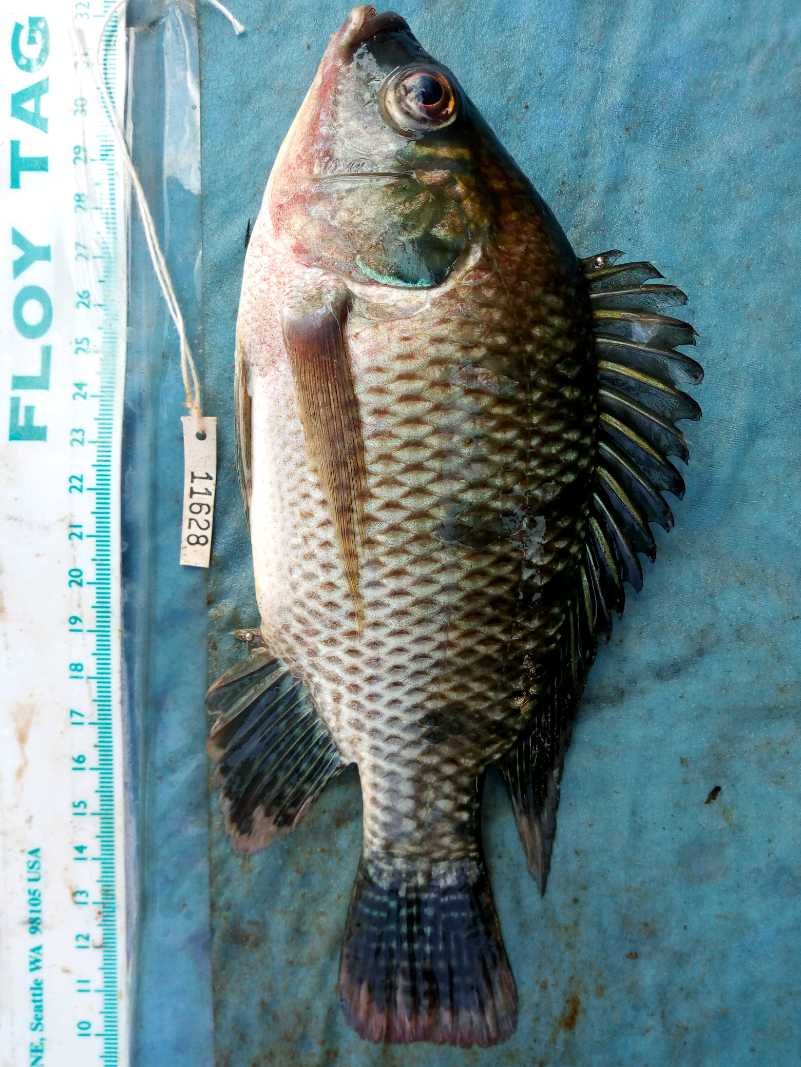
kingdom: Animalia
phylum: Chordata
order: Perciformes
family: Cichlidae
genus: Oreochromis
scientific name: Oreochromis niloticus
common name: Nile tilapia
